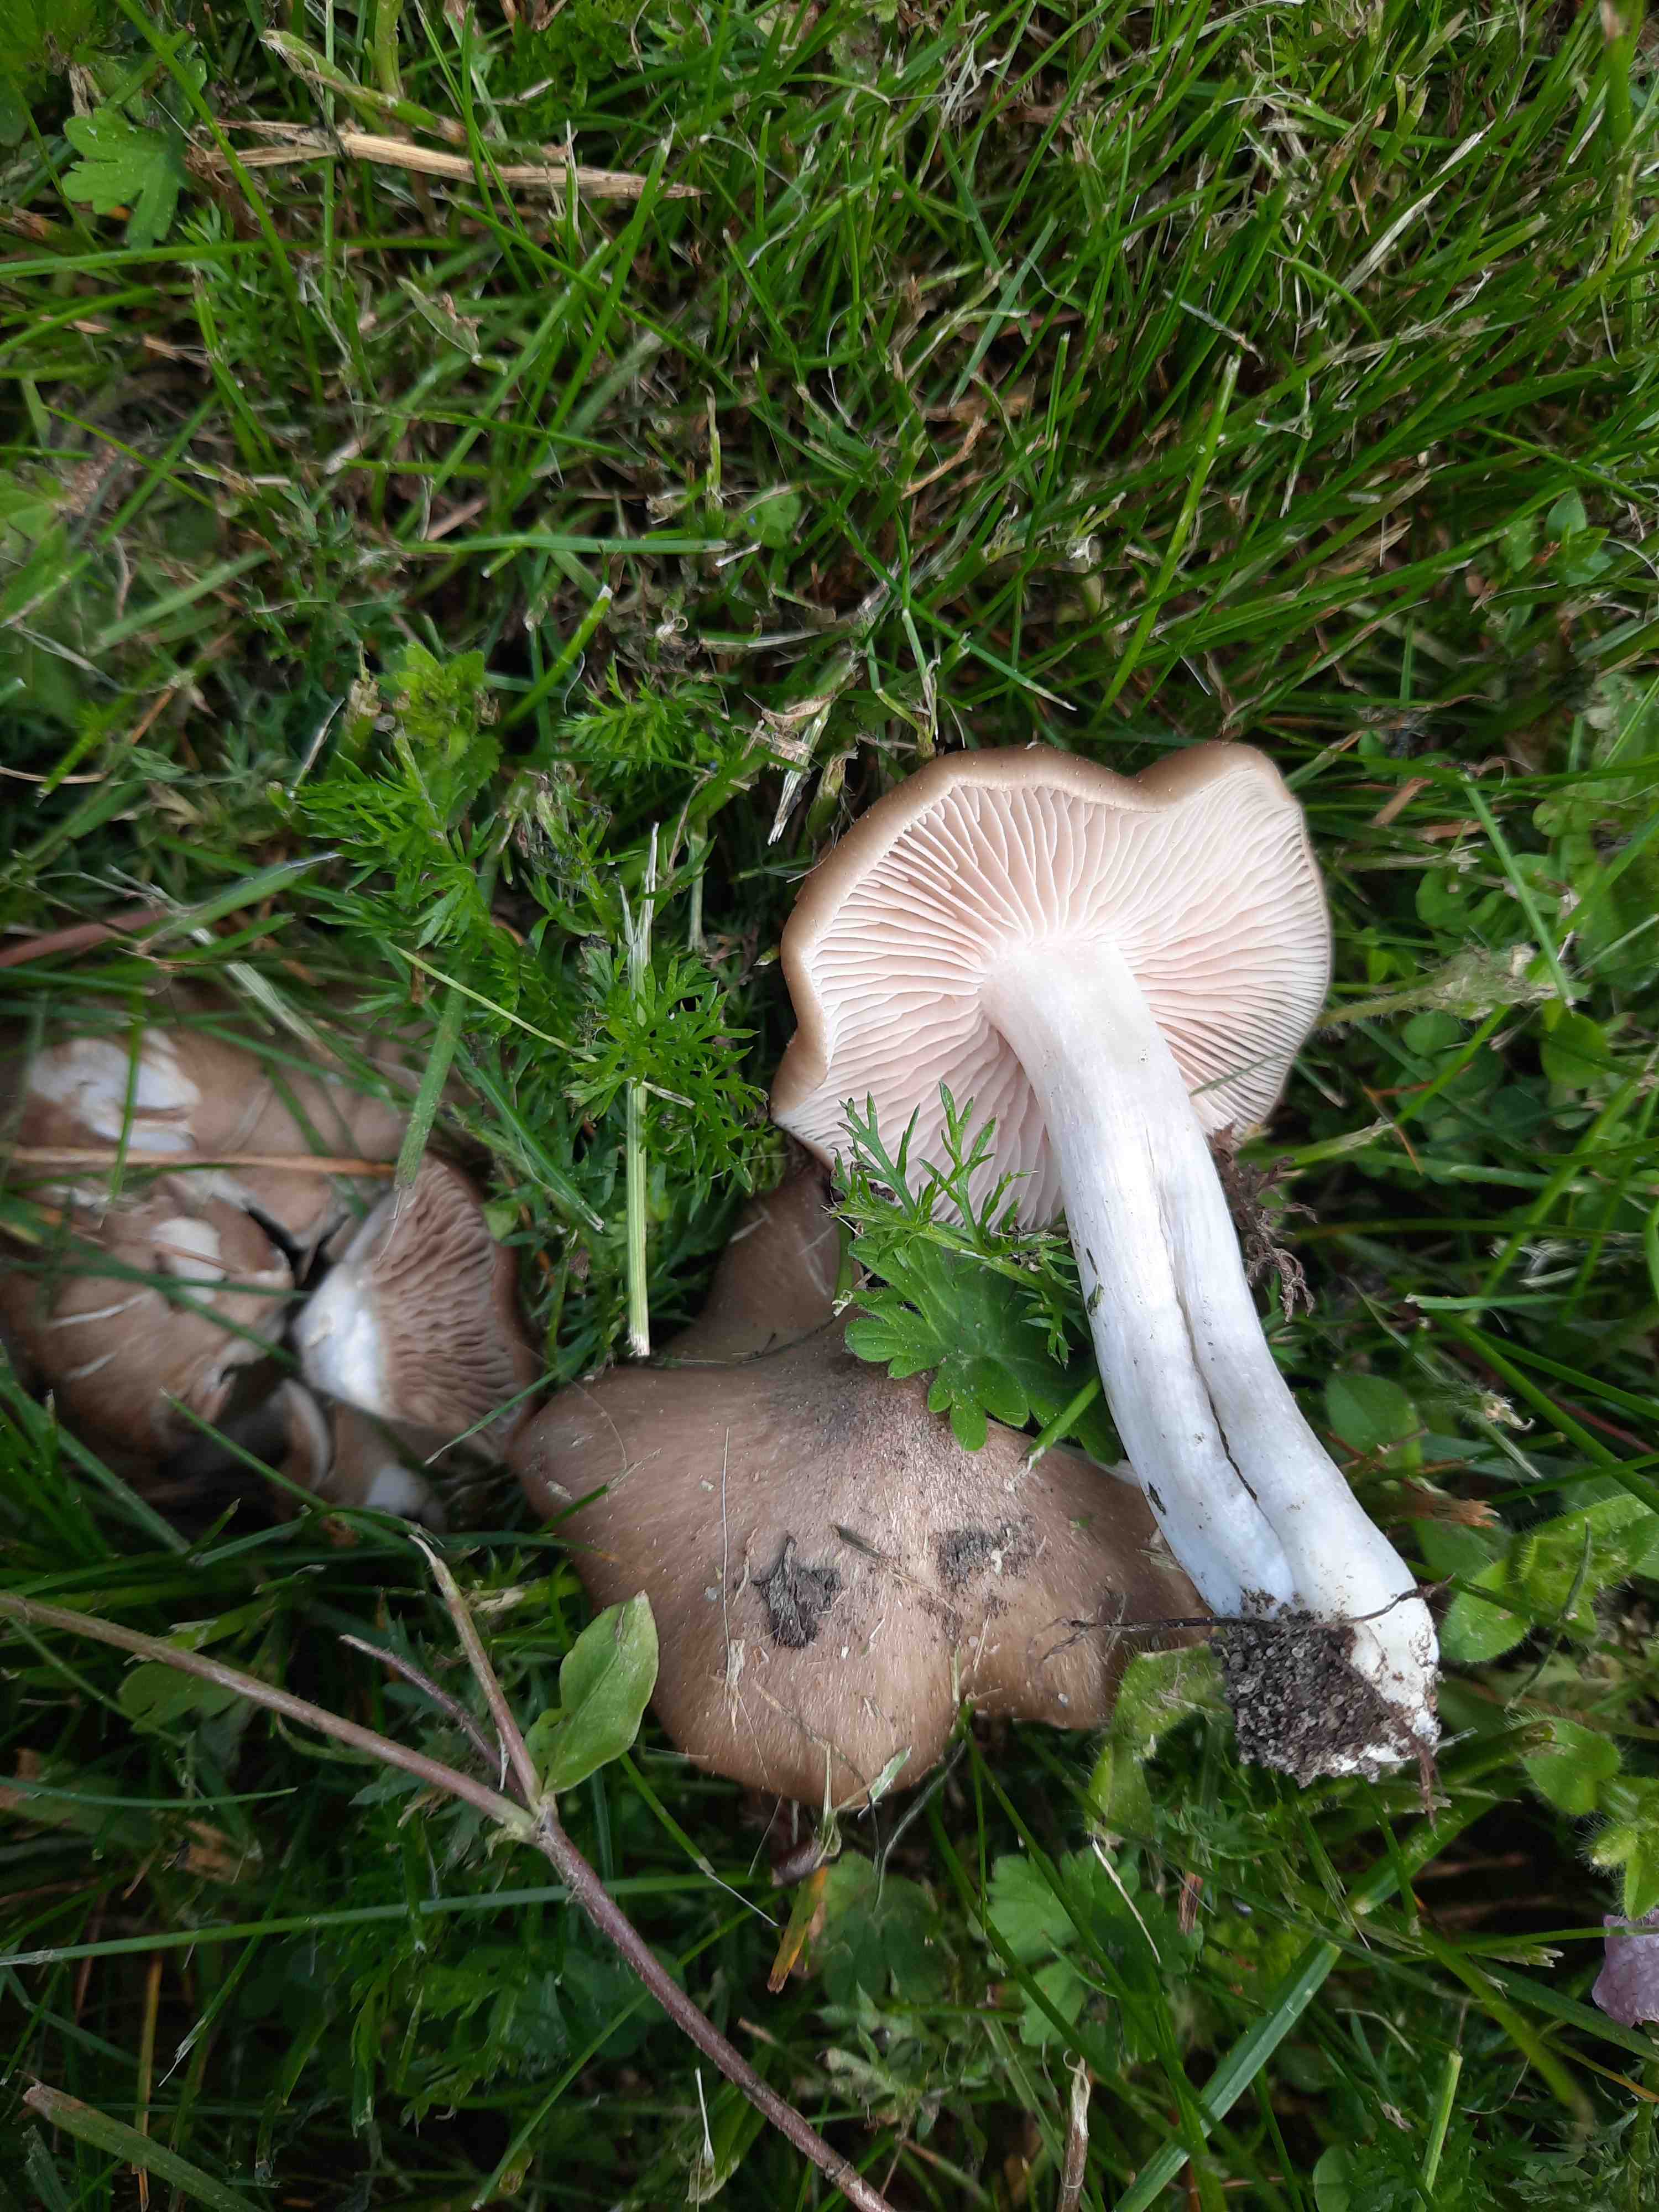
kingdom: Fungi
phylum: Basidiomycota
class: Agaricomycetes
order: Agaricales
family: Entolomataceae
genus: Entoloma
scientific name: Entoloma clypeatum
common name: flammet rødblad
